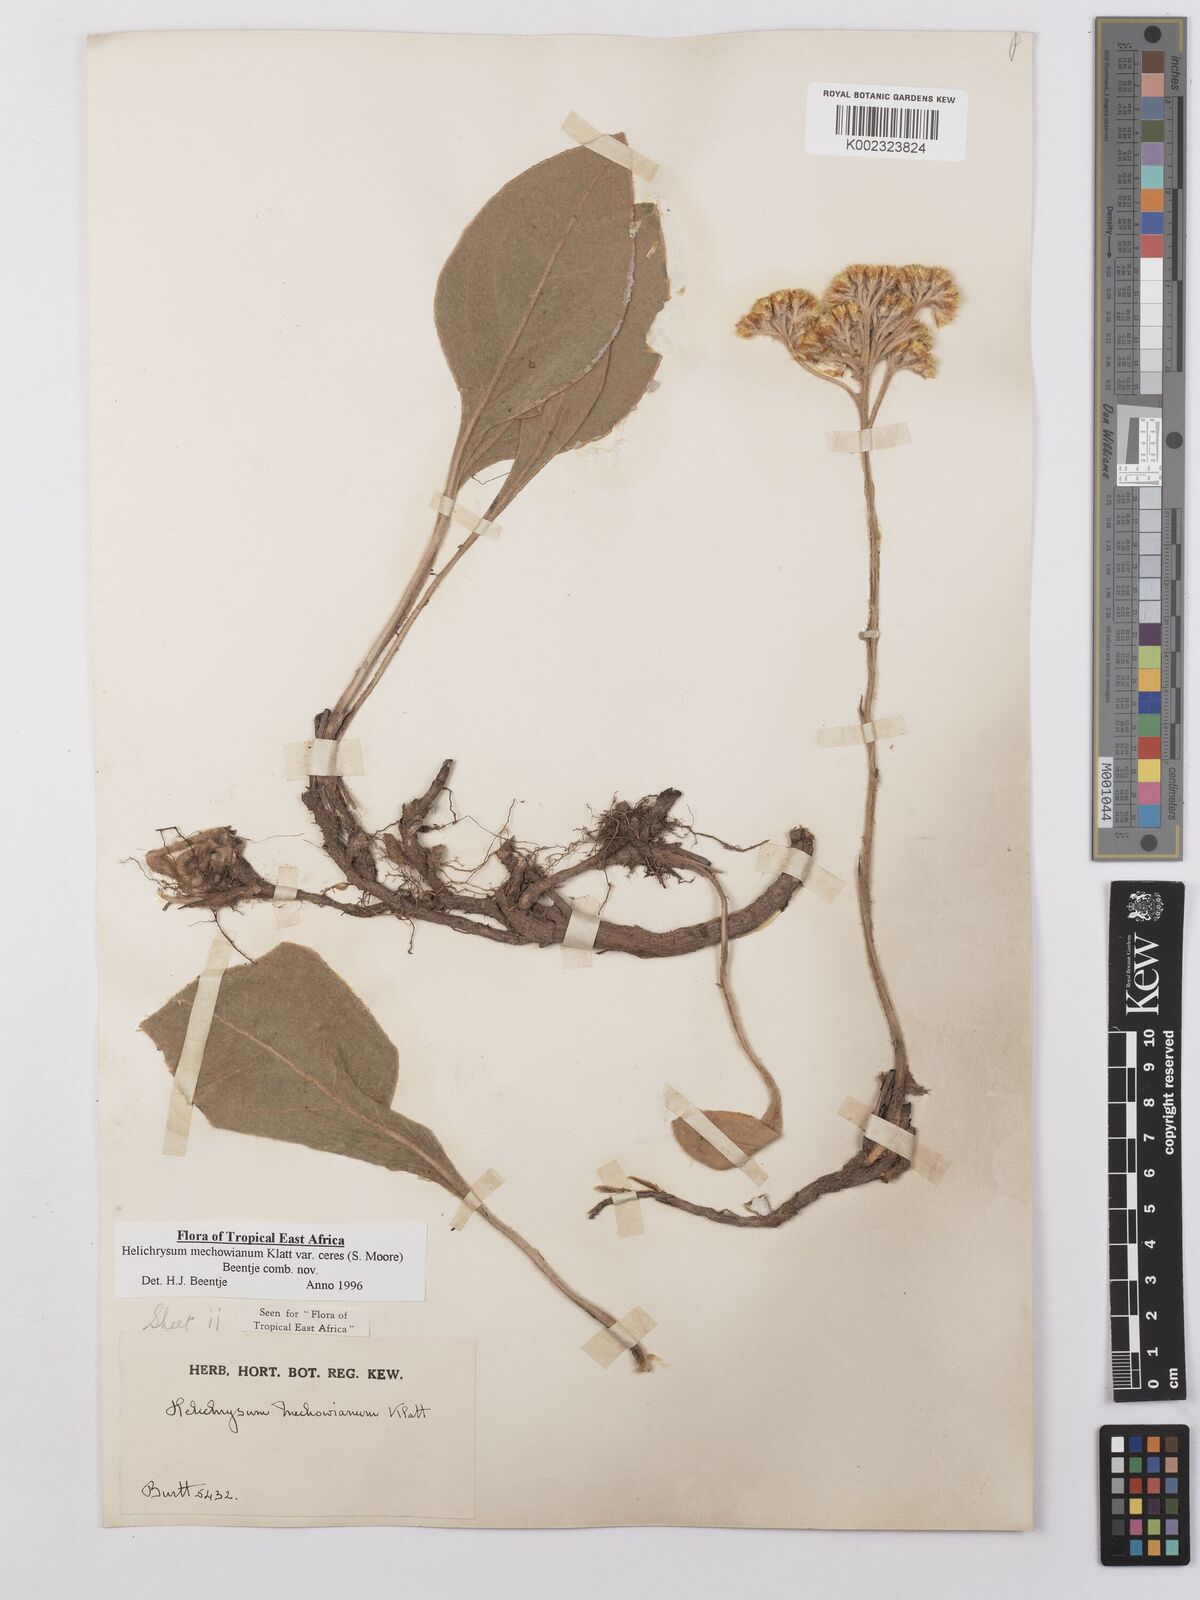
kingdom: Plantae
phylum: Tracheophyta
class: Magnoliopsida
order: Asterales
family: Asteraceae
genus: Helichrysum
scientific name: Helichrysum mechowianum
